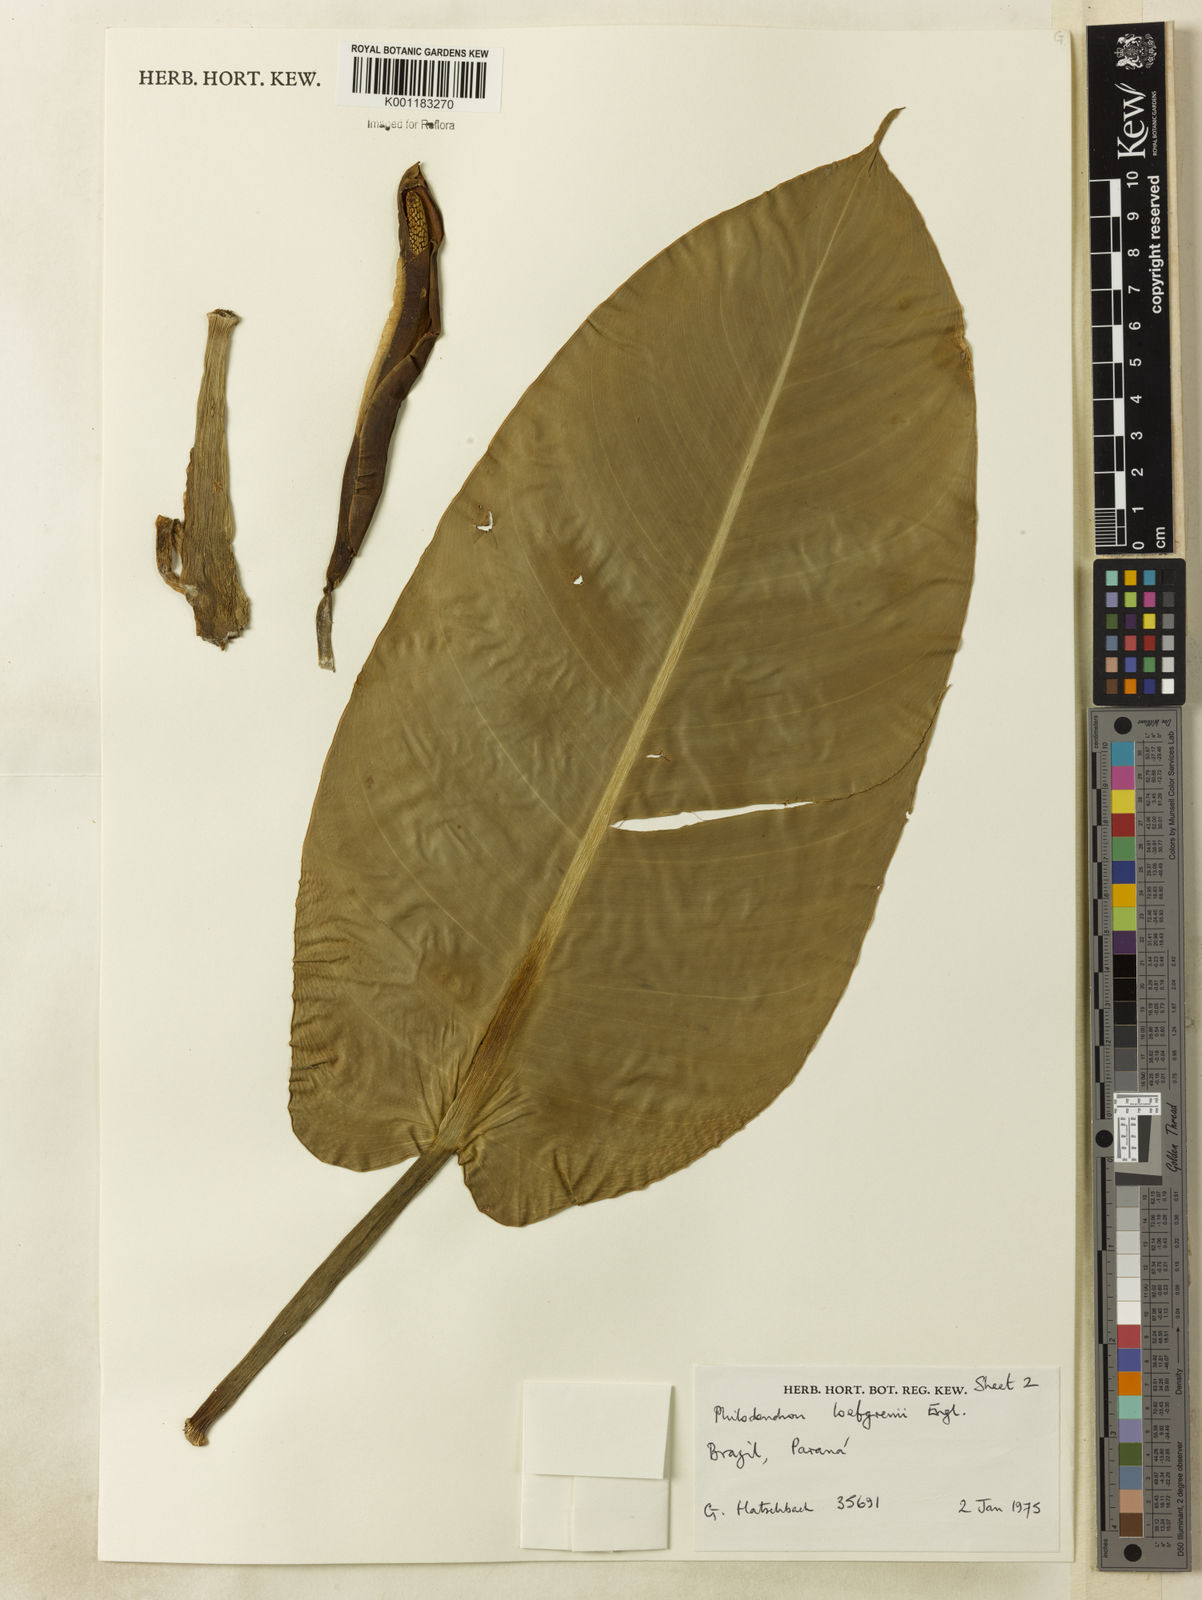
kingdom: Plantae
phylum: Tracheophyta
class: Liliopsida
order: Alismatales
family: Araceae
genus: Philodendron
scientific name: Philodendron loefgrenii
